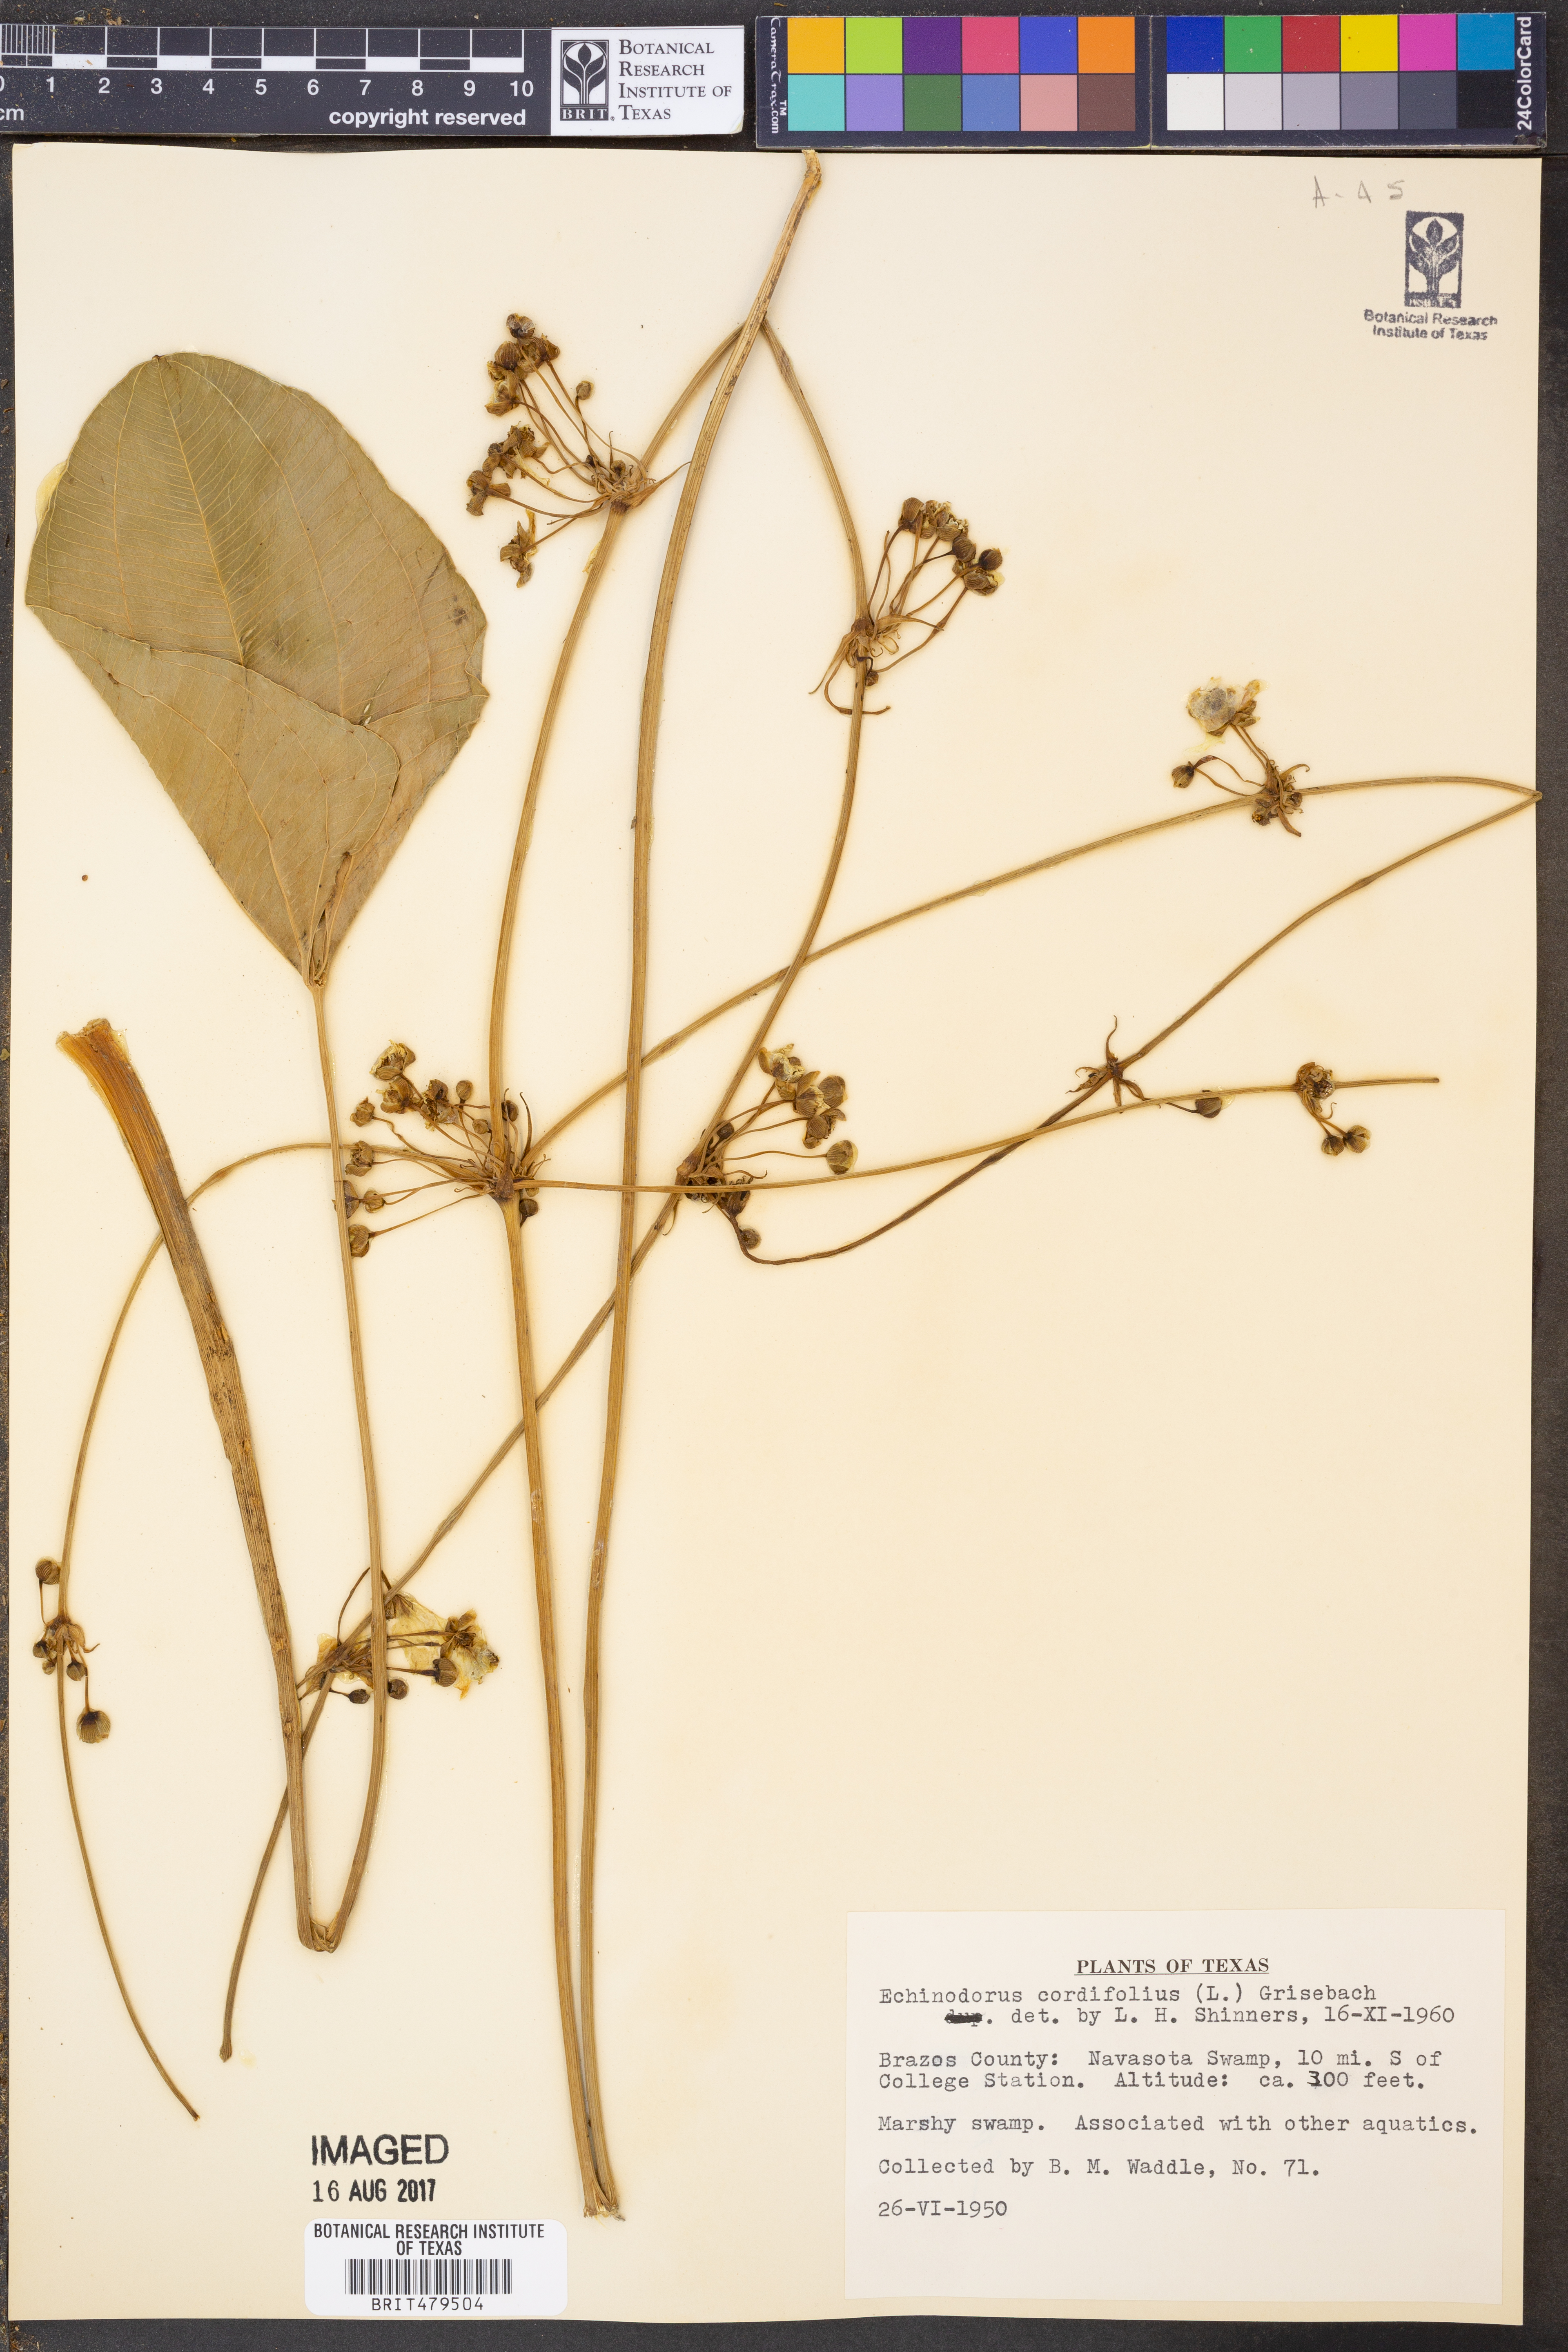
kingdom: Plantae
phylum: Tracheophyta
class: Liliopsida
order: Alismatales
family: Alismataceae
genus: Aquarius
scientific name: Aquarius cordifolius
